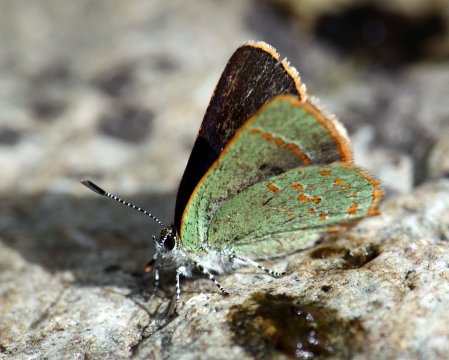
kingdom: Animalia
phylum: Arthropoda
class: Insecta
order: Lepidoptera
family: Lycaenidae
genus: Erora
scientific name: Erora quaderna
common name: Arizona Hairstreak
